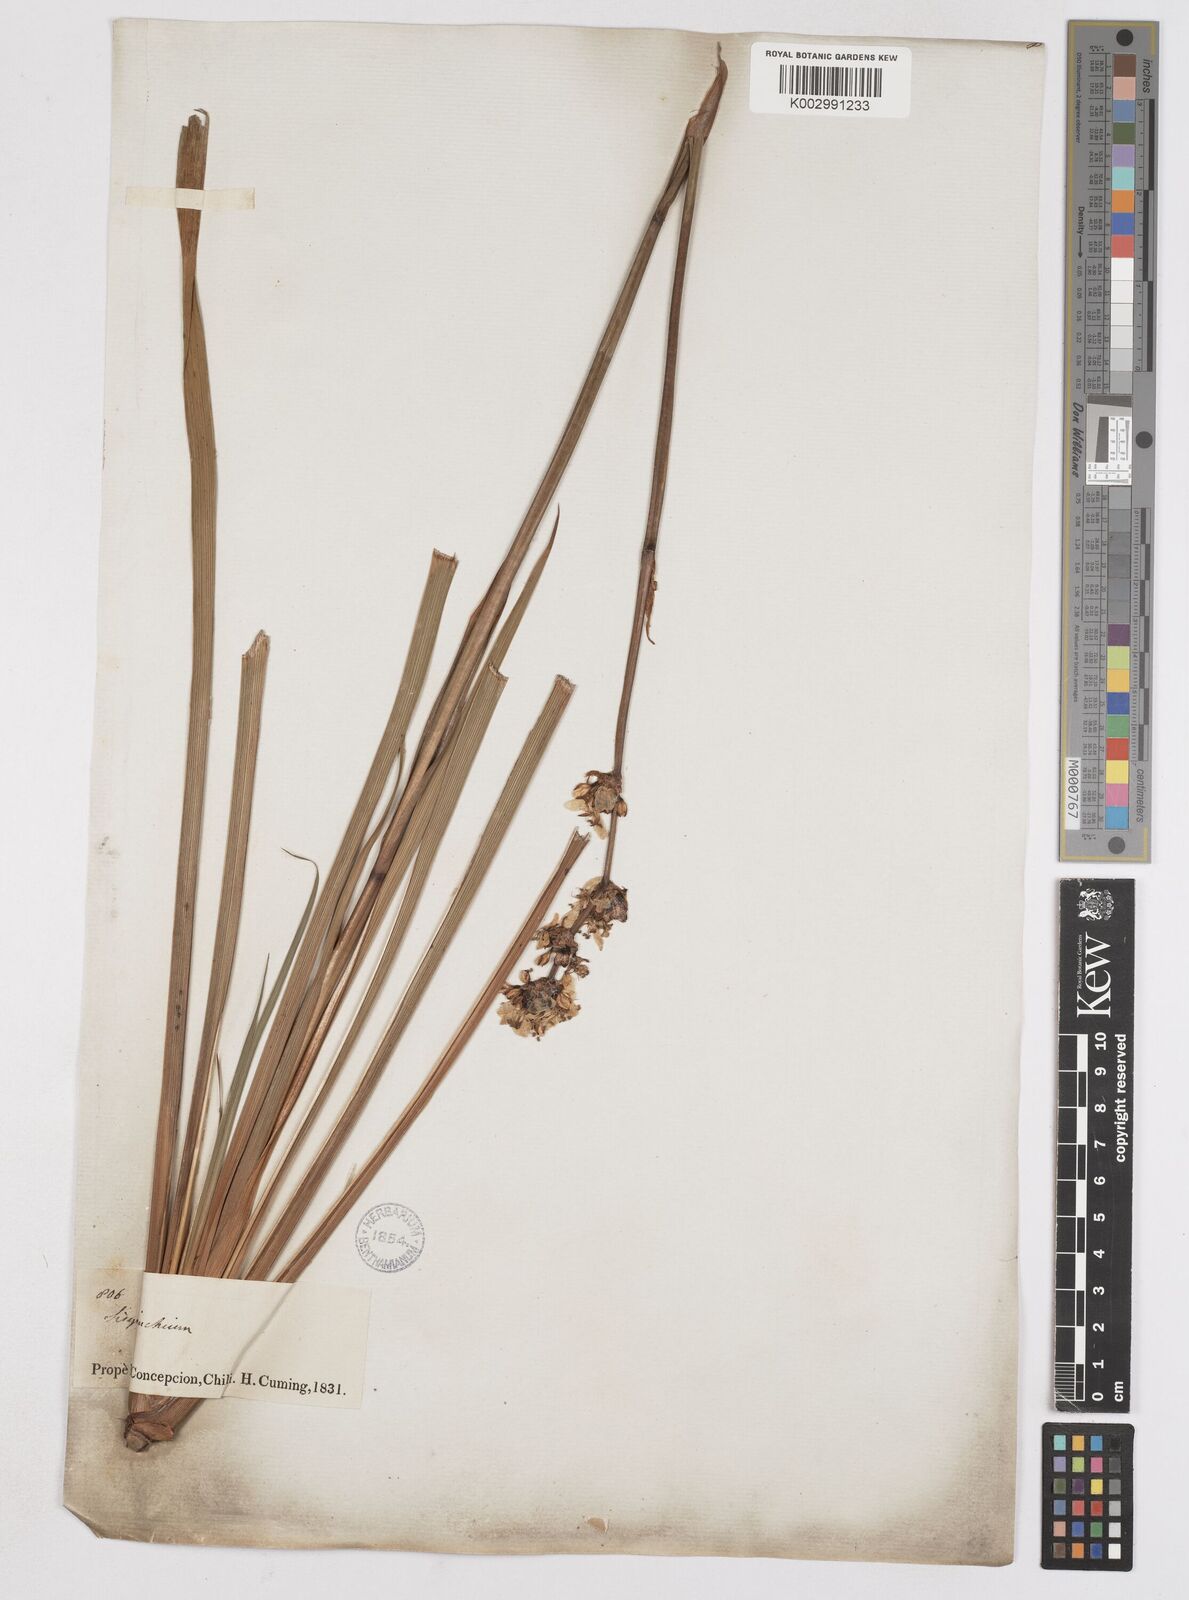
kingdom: Plantae
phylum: Tracheophyta
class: Liliopsida
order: Asparagales
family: Iridaceae
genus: Libertia
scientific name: Libertia chilensis
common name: Satin flower
